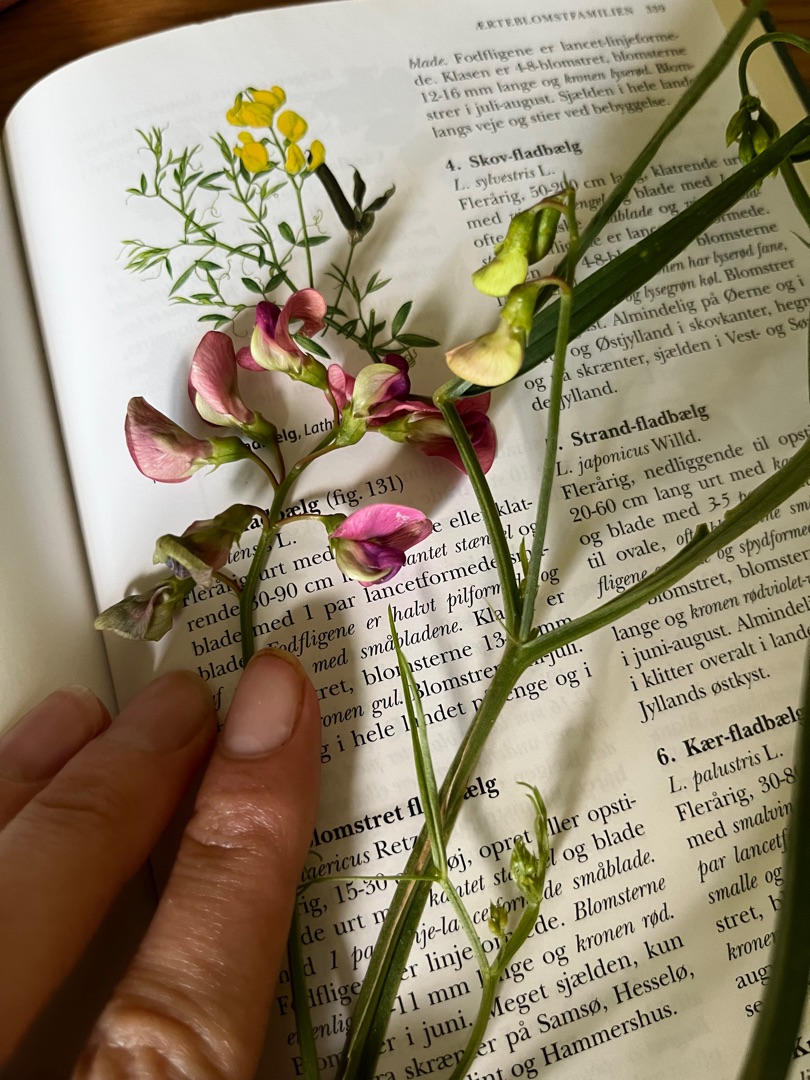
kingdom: Plantae
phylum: Tracheophyta
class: Magnoliopsida
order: Fabales
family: Fabaceae
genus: Lathyrus
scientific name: Lathyrus sylvestris
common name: Skov-fladbælg
